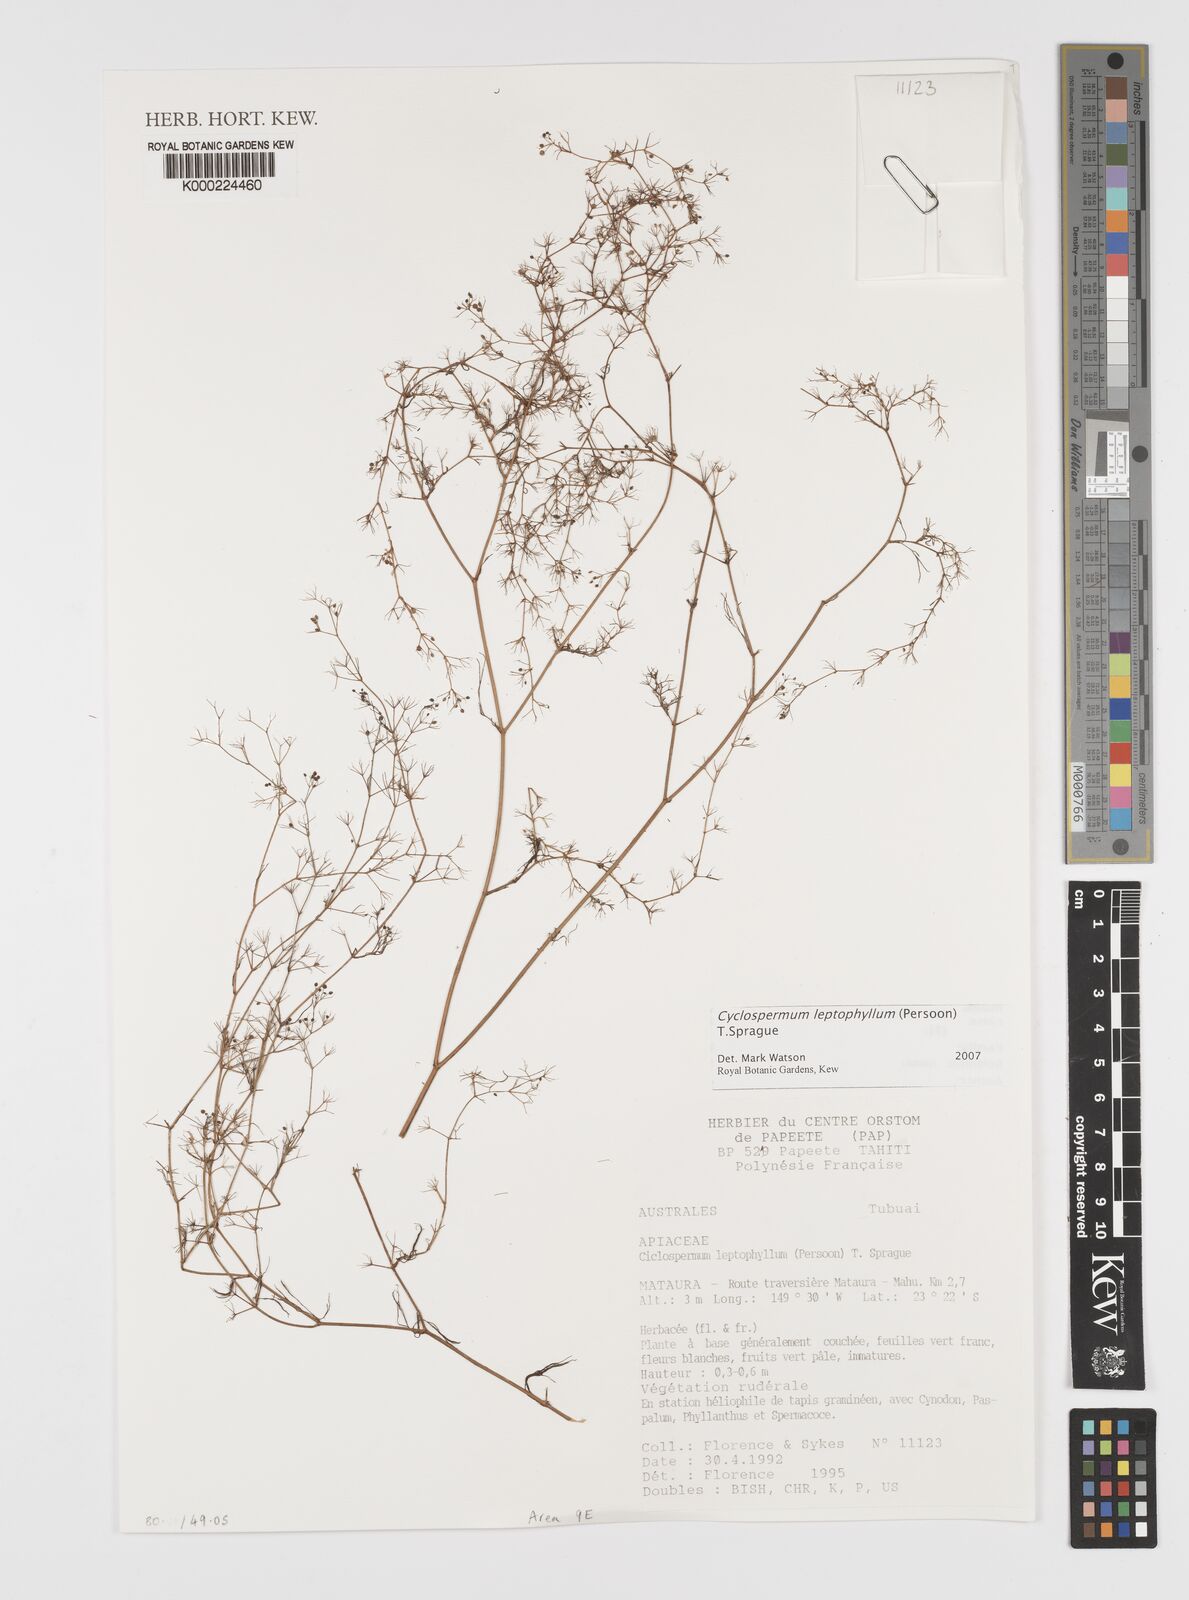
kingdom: Plantae
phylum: Tracheophyta
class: Magnoliopsida
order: Apiales
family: Apiaceae
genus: Cyclospermum
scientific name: Cyclospermum
